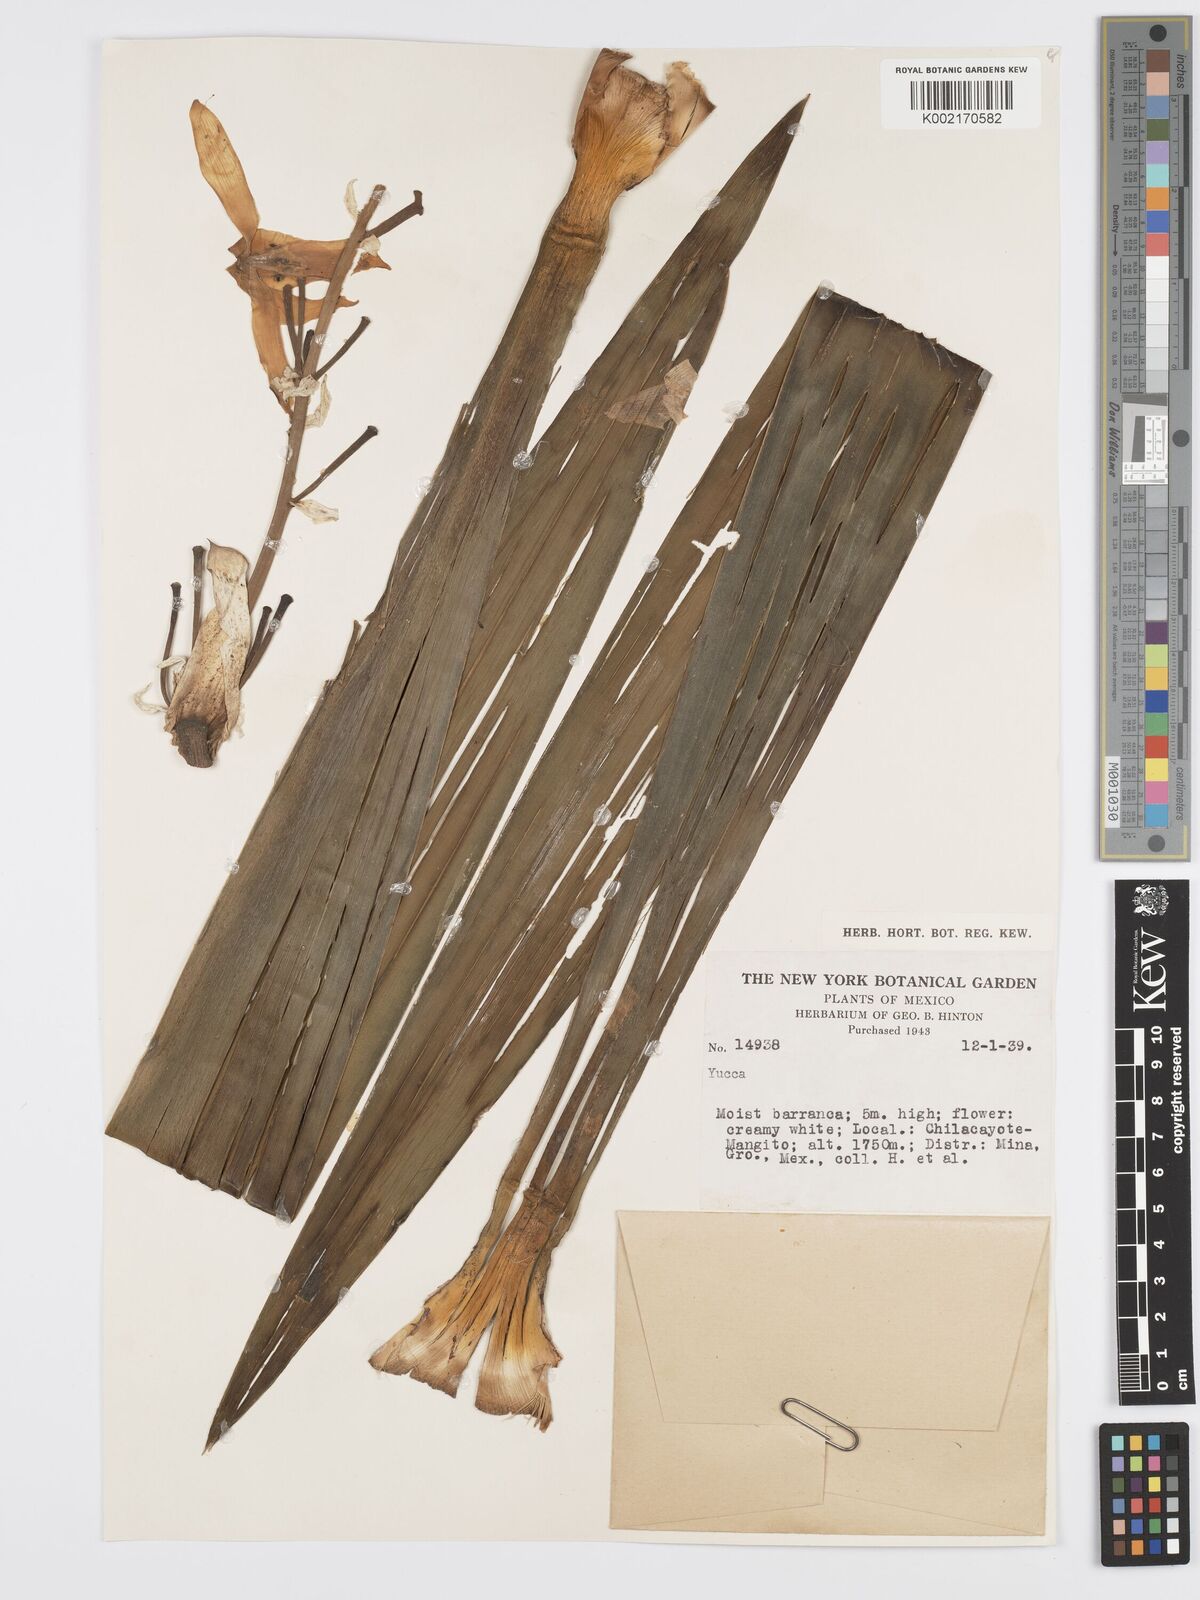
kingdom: Plantae
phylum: Tracheophyta
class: Liliopsida
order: Asparagales
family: Asparagaceae
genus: Yucca
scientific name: Yucca
